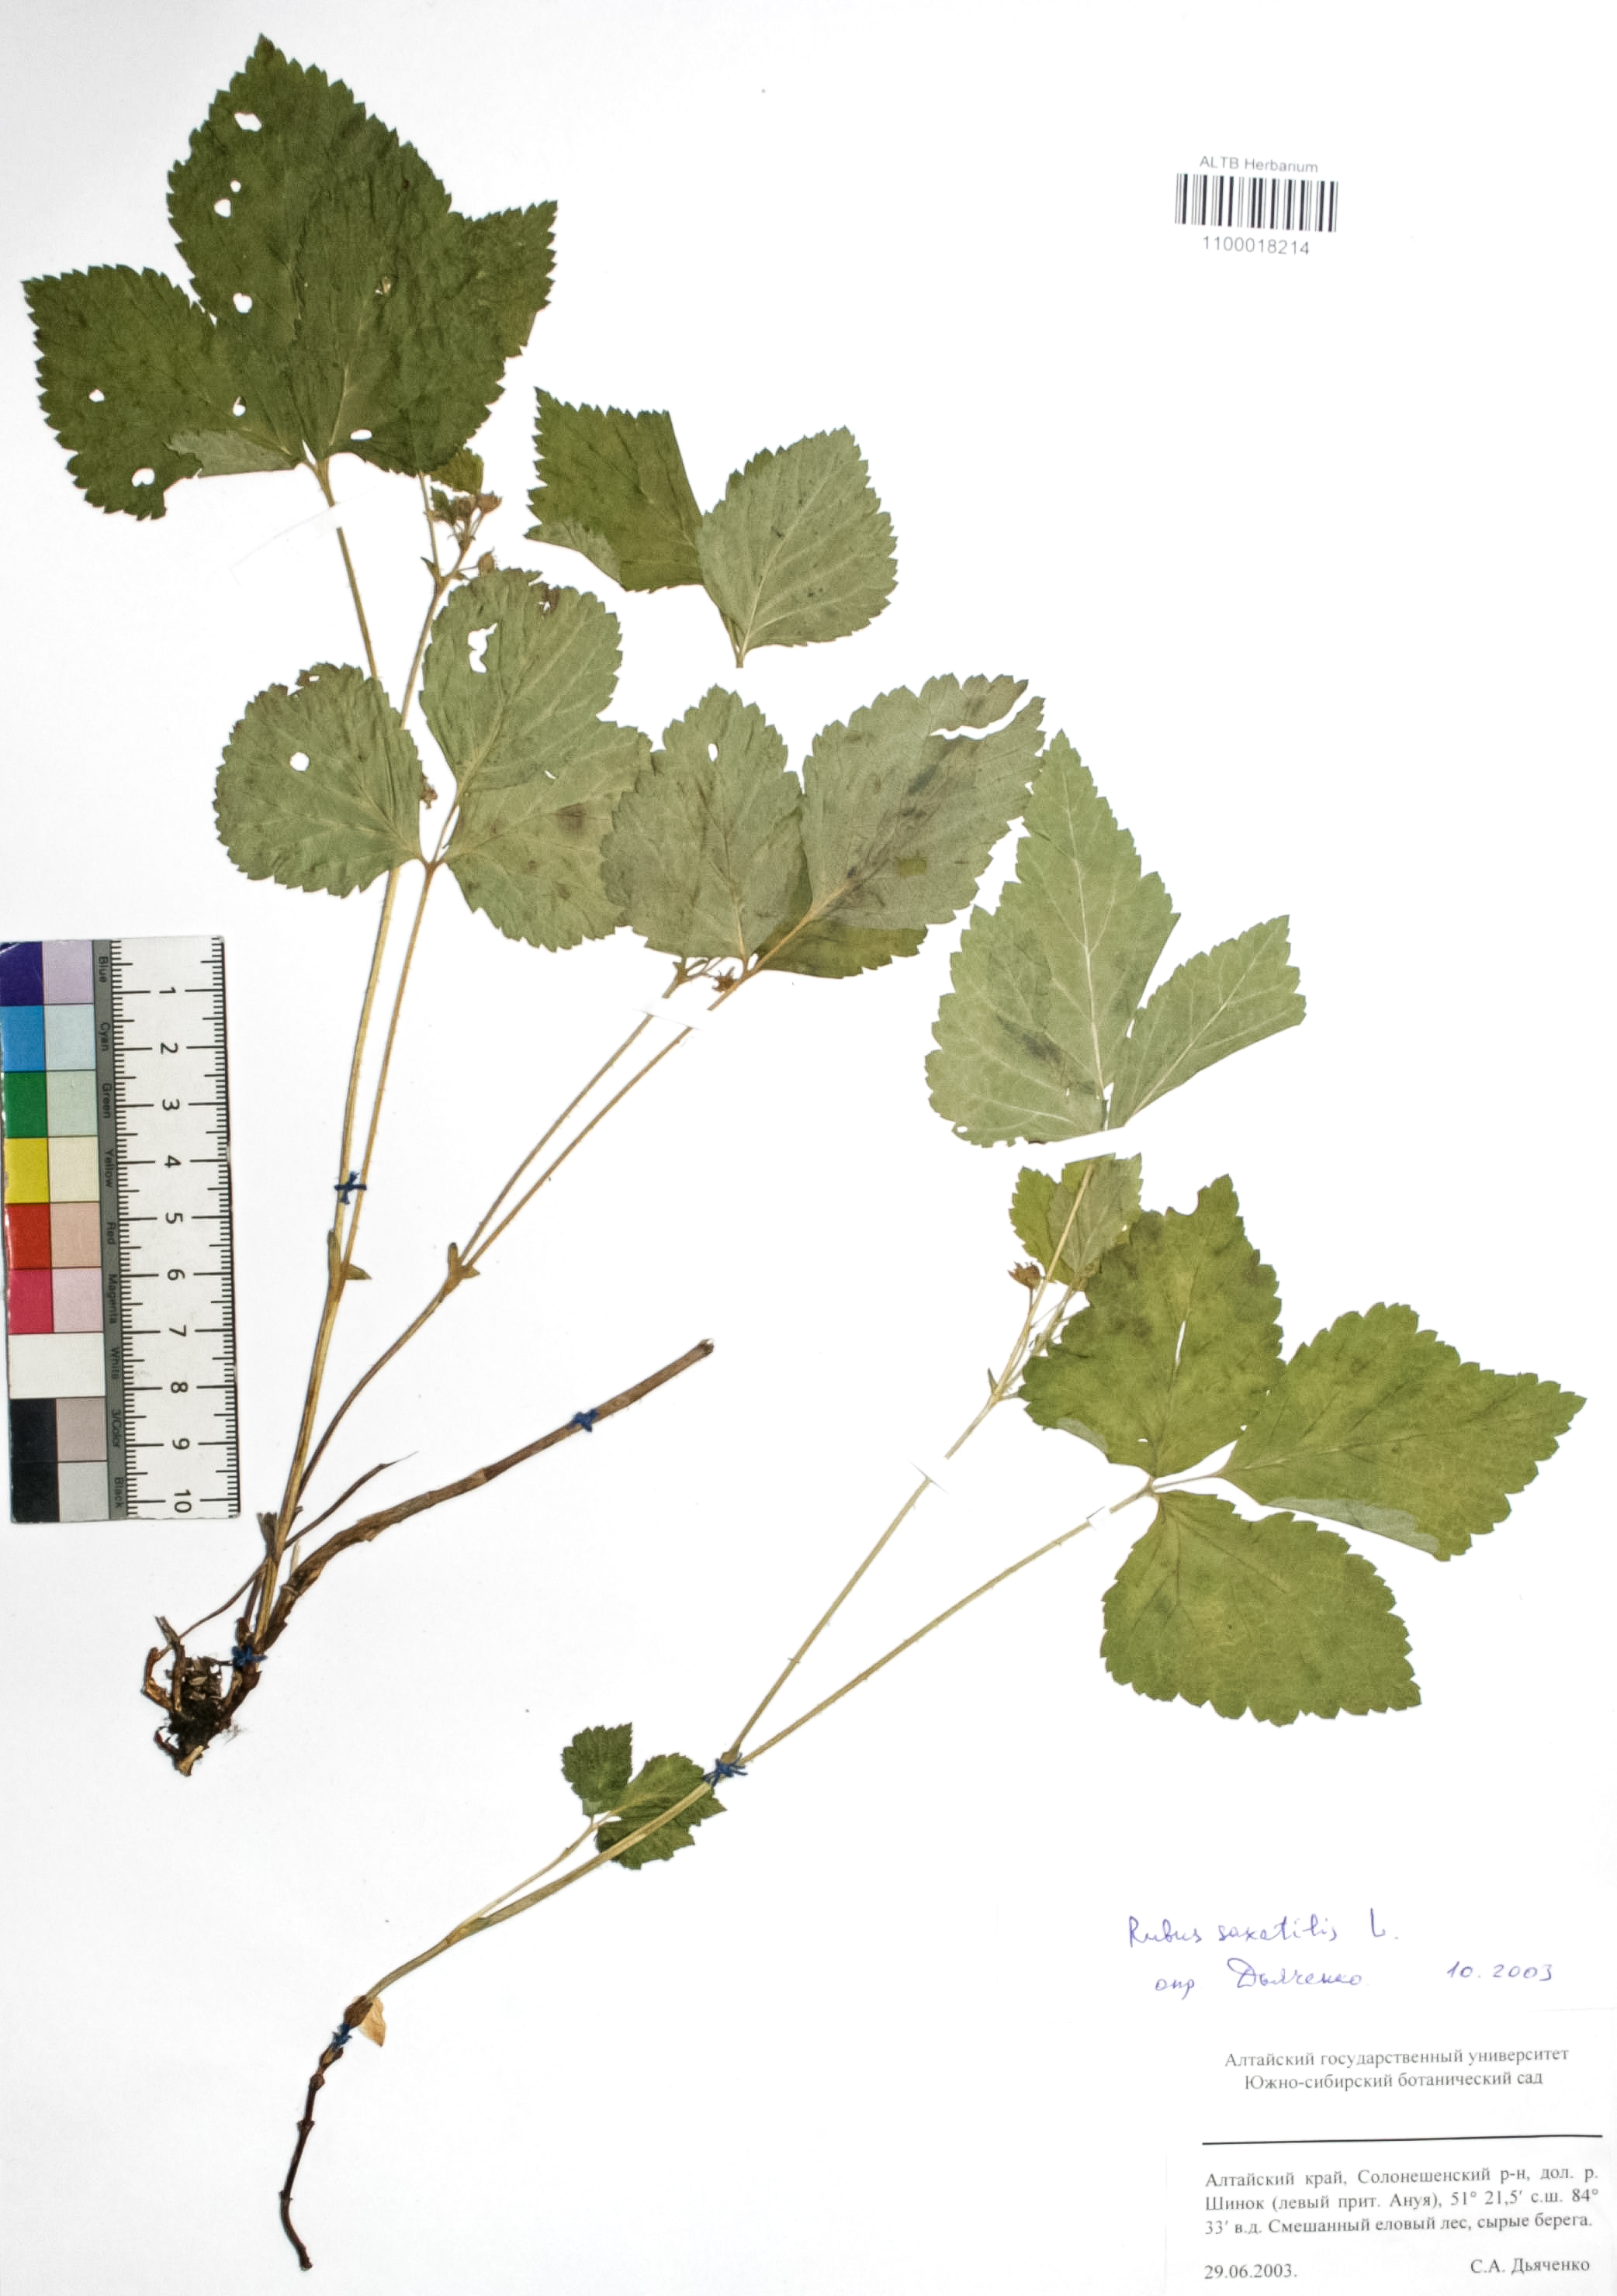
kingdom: Plantae
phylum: Tracheophyta
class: Magnoliopsida
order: Rosales
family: Rosaceae
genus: Rubus
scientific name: Rubus saxatilis
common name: Stone bramble
